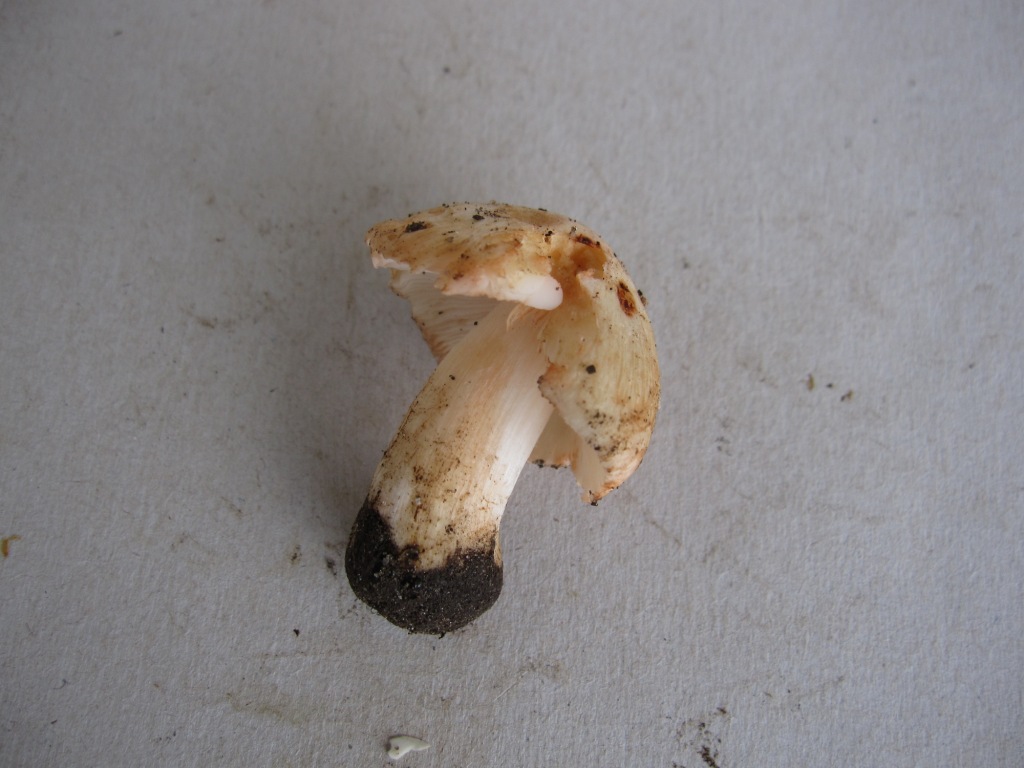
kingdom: Fungi
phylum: Basidiomycota
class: Agaricomycetes
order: Agaricales
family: Inocybaceae
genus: Inosperma
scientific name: Inosperma erubescens
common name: giftig trævlhat
